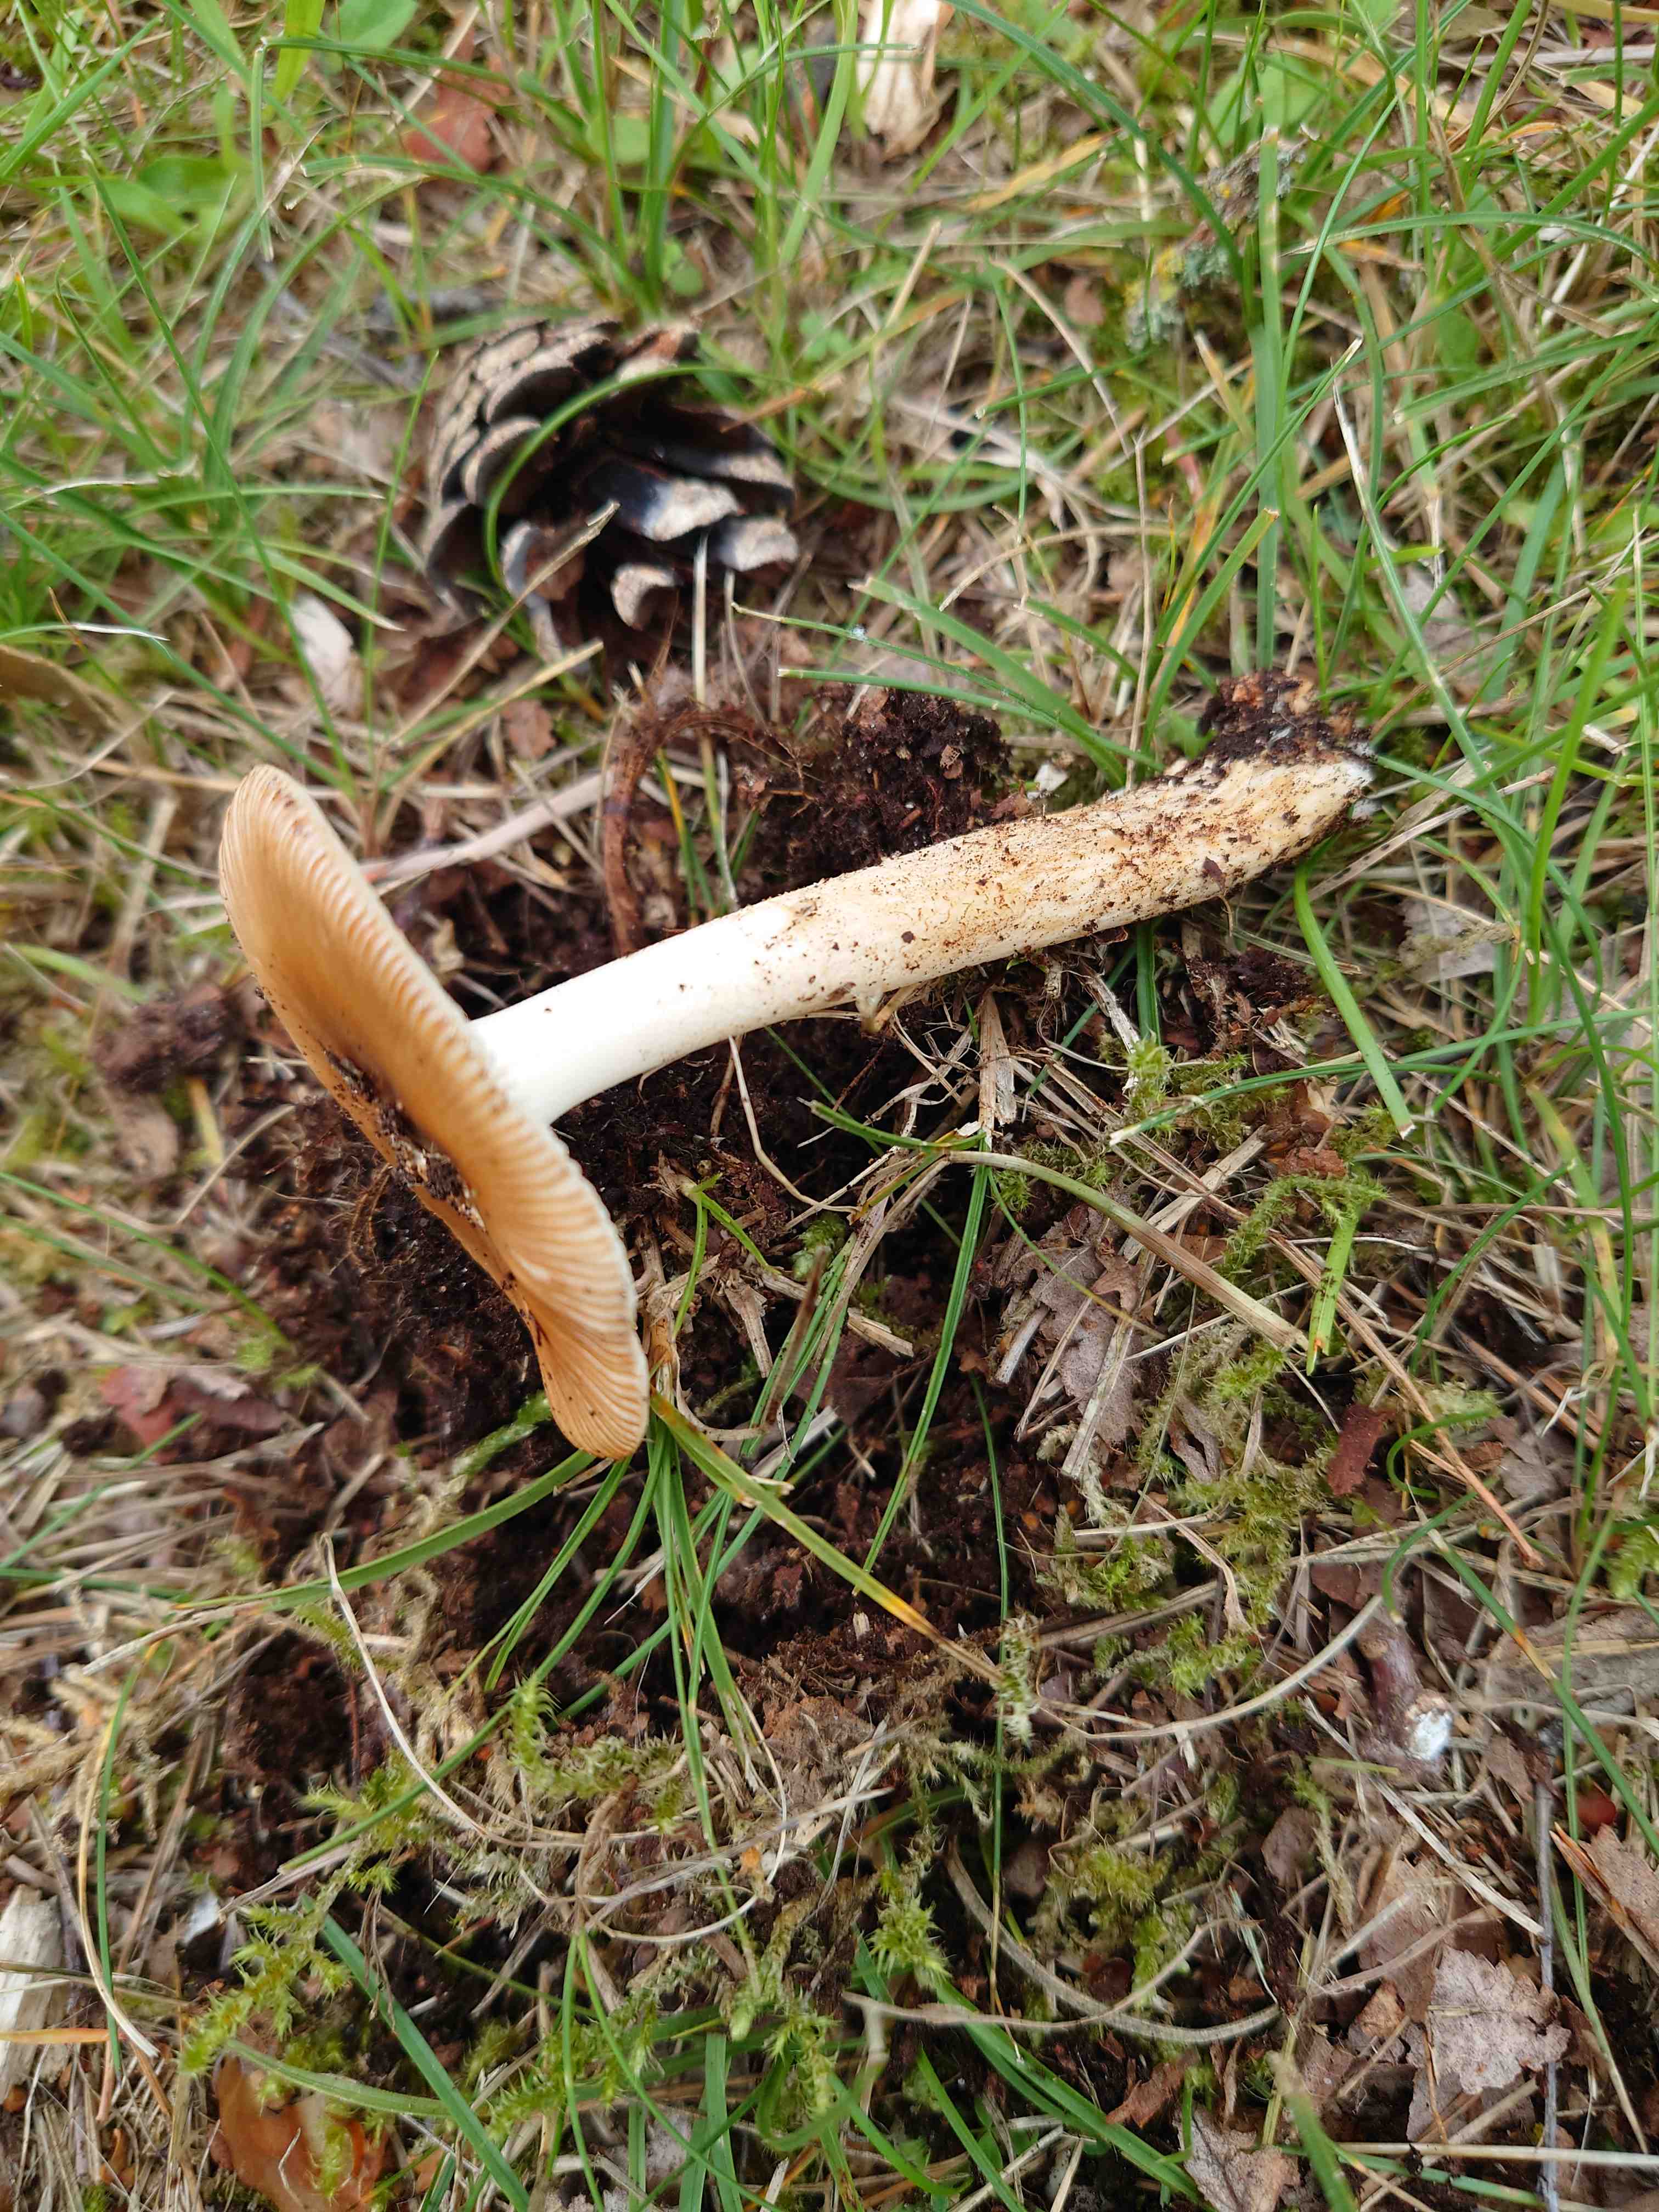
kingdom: Fungi
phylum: Basidiomycota
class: Agaricomycetes
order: Agaricales
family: Amanitaceae
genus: Amanita
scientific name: Amanita fulva
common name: brun kam-fluesvamp
